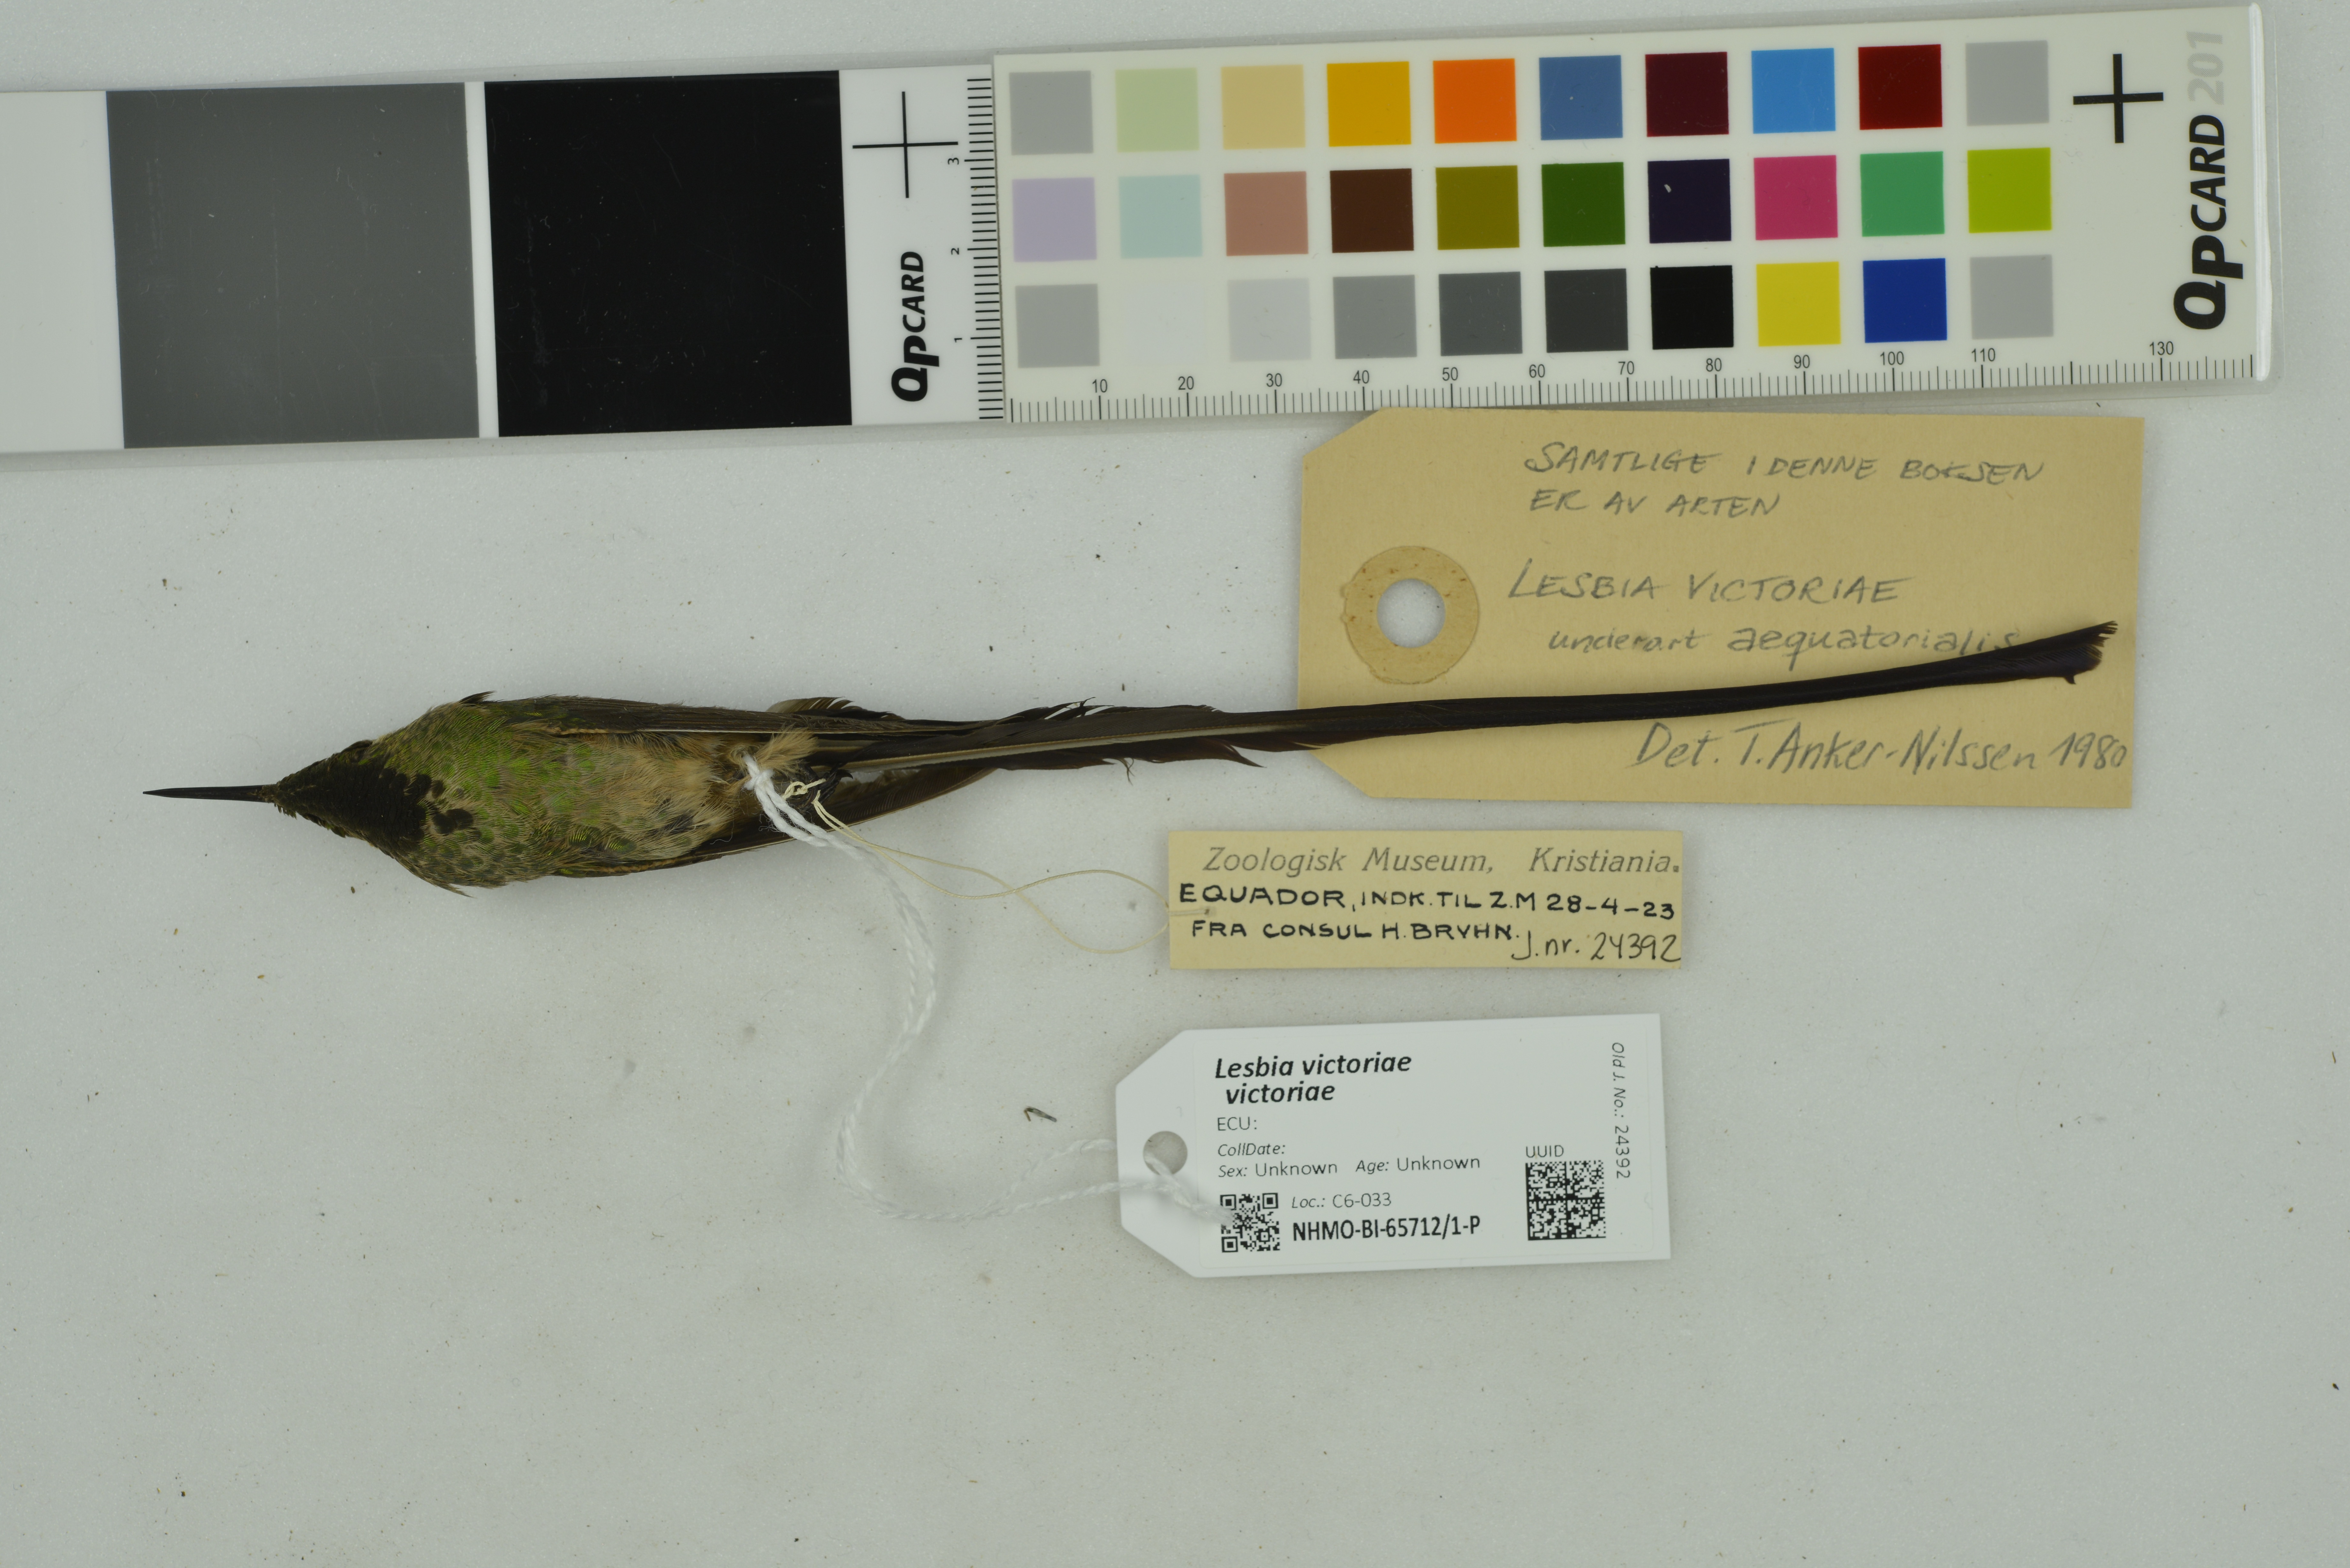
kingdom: Animalia
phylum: Chordata
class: Aves
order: Apodiformes
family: Trochilidae
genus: Lesbia
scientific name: Lesbia victoriae
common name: Black-tailed trainbearer
